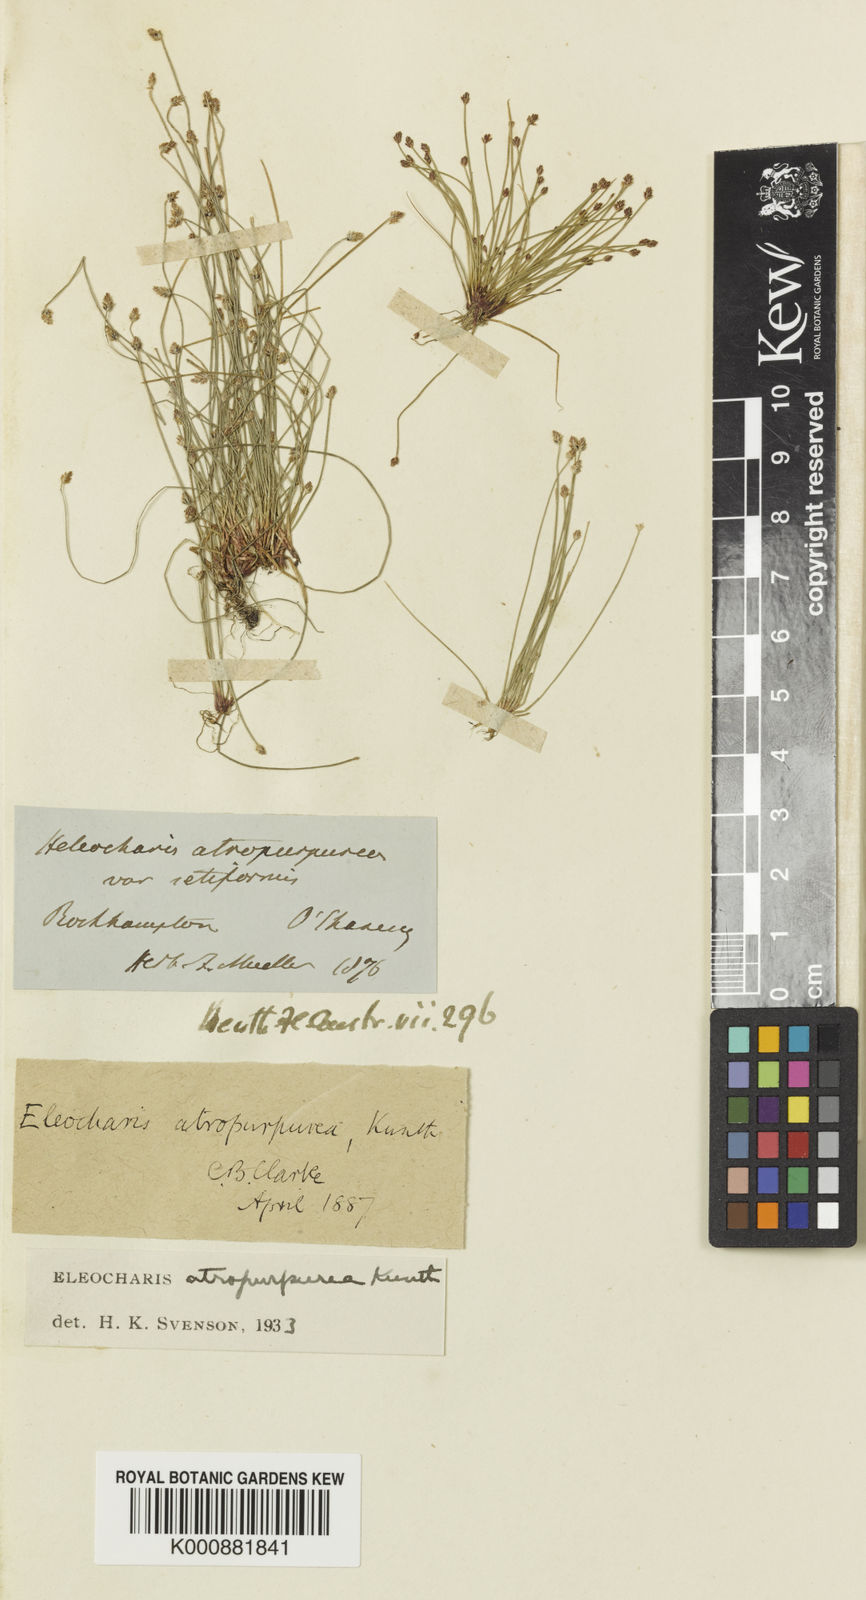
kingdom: Plantae
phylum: Tracheophyta
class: Liliopsida
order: Poales
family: Cyperaceae
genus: Eleocharis
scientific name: Eleocharis
